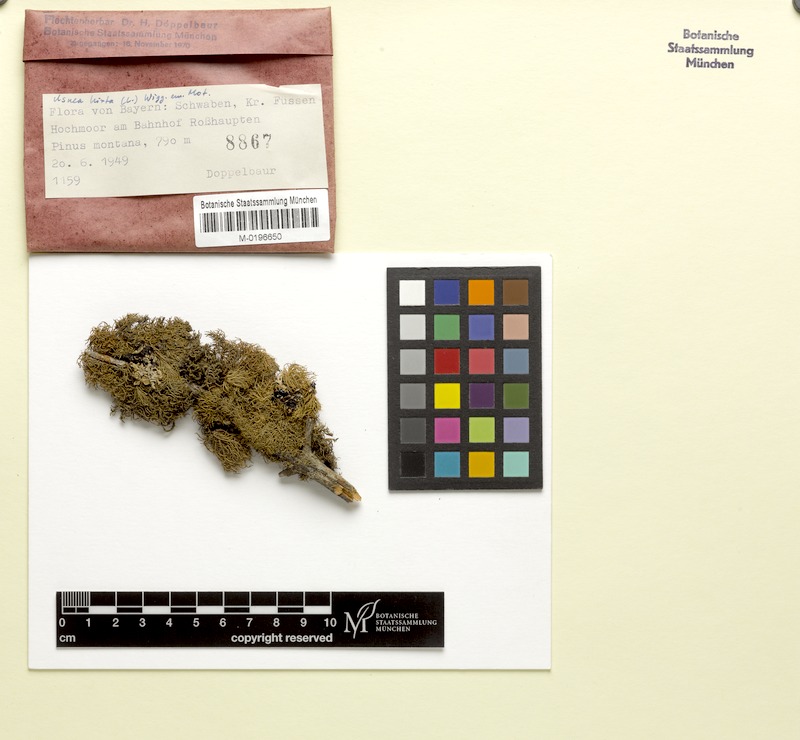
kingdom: Fungi
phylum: Ascomycota
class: Lecanoromycetes
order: Lecanorales
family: Parmeliaceae
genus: Usnea
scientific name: Usnea hirta
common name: Bristly beard lichen
